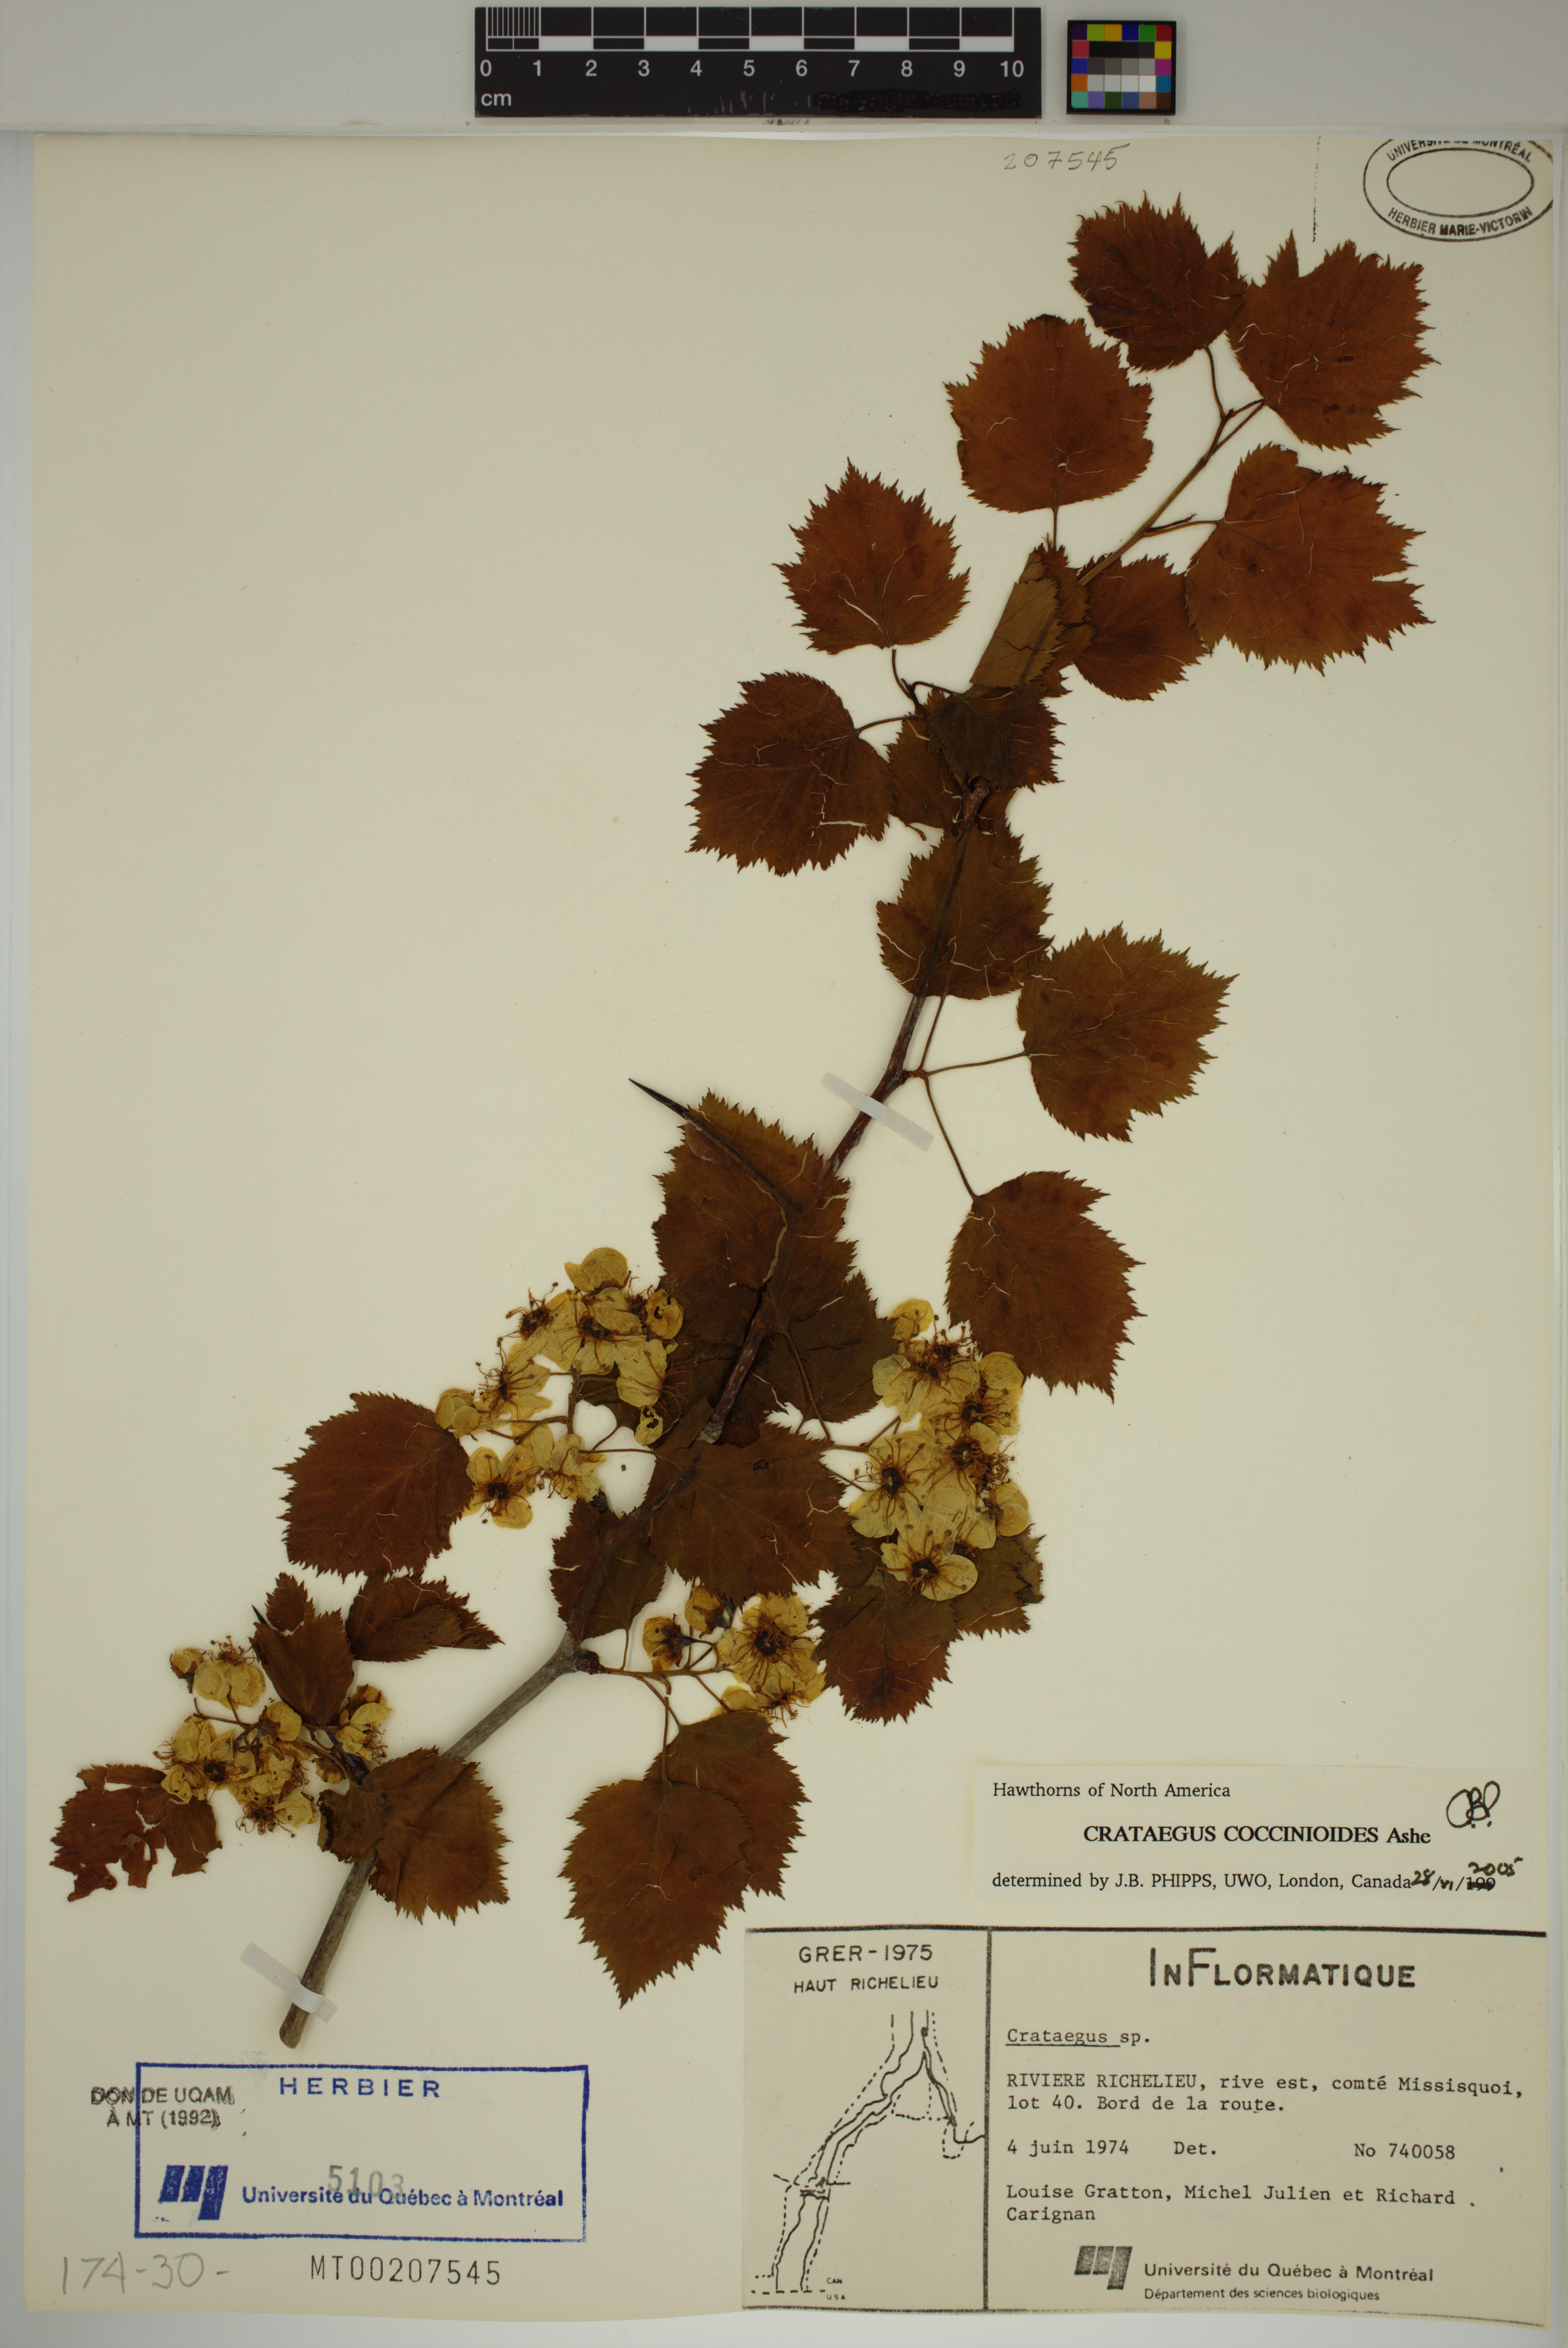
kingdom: Plantae
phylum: Tracheophyta
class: Magnoliopsida
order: Rosales
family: Rosaceae
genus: Crataegus
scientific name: Crataegus coccinioides
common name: Large-flowered cockspurthorn
